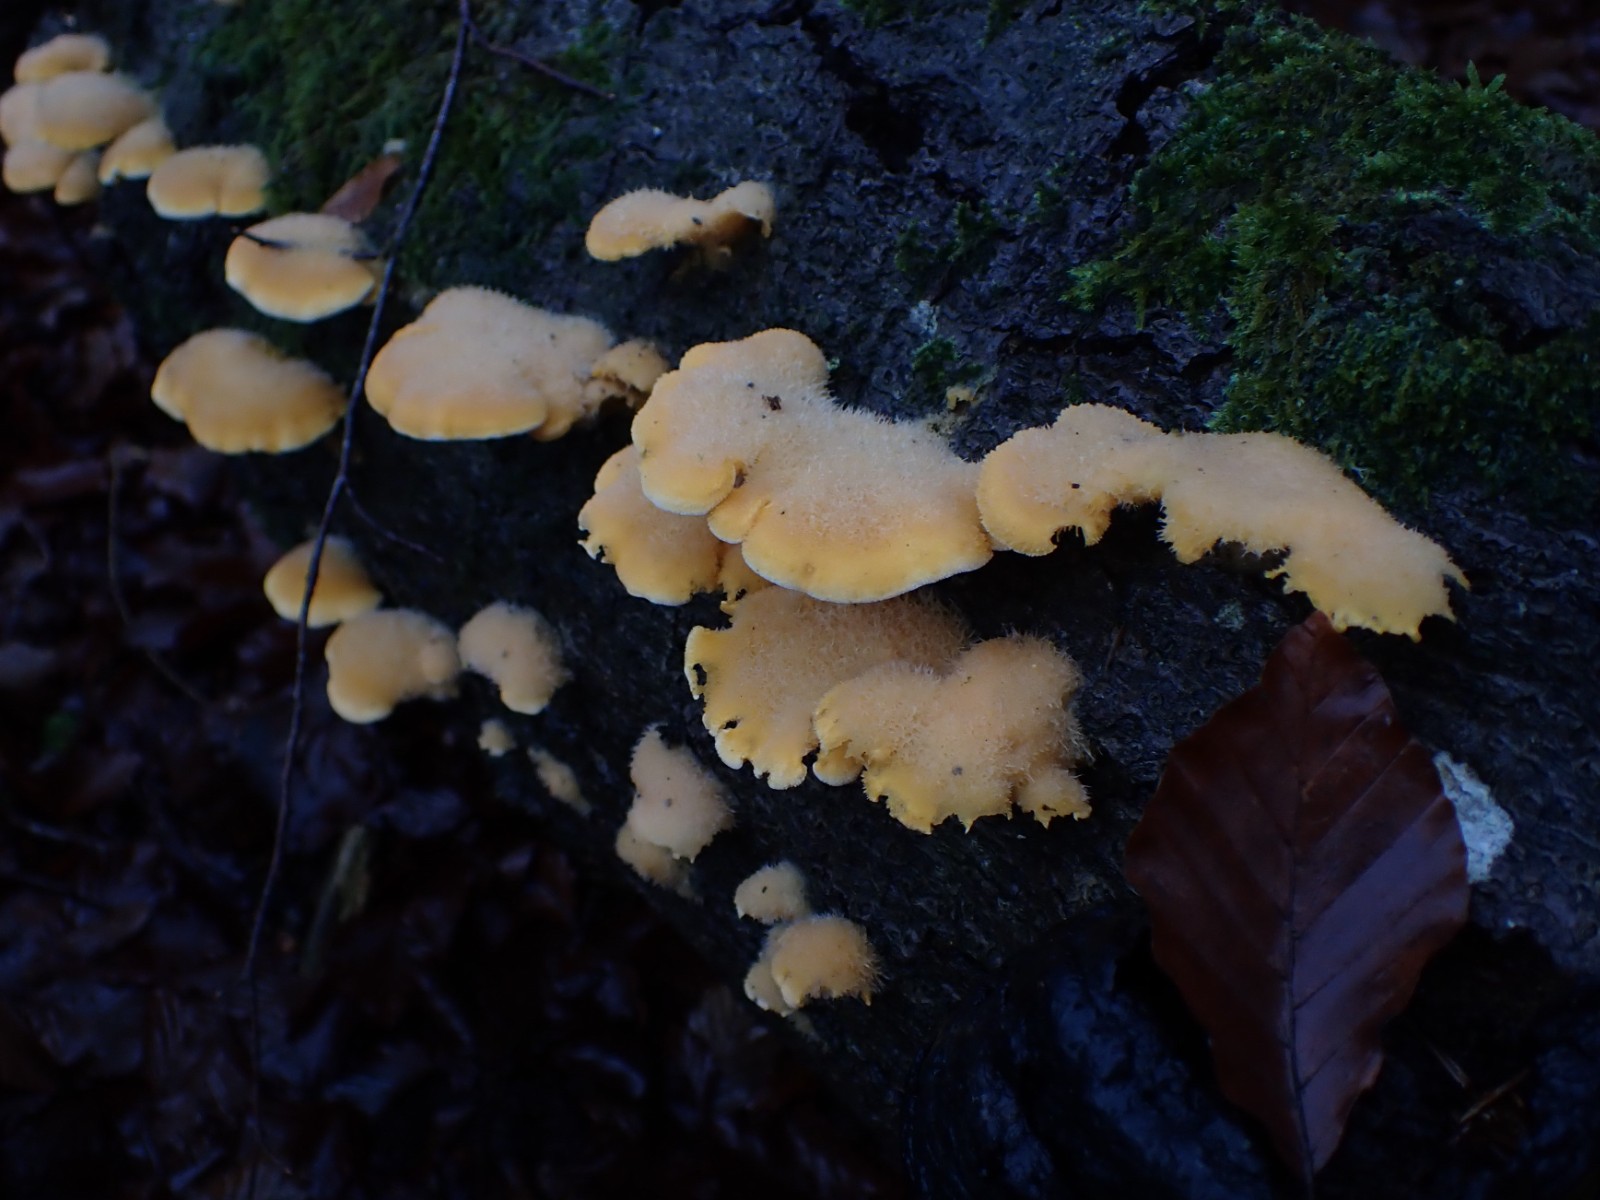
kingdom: Fungi
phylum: Basidiomycota
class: Agaricomycetes
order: Agaricales
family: Phyllotopsidaceae
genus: Phyllotopsis
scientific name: Phyllotopsis nidulans
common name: okkerblad
